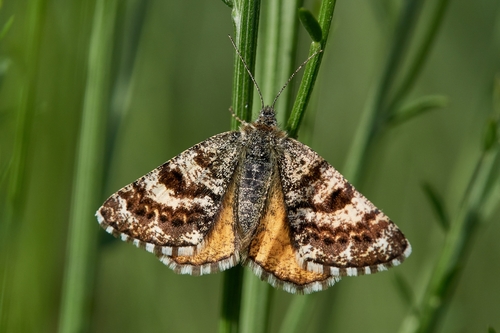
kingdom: Animalia
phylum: Arthropoda
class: Insecta
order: Lepidoptera
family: Geometridae
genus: Isturgia
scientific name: Isturgia famula
